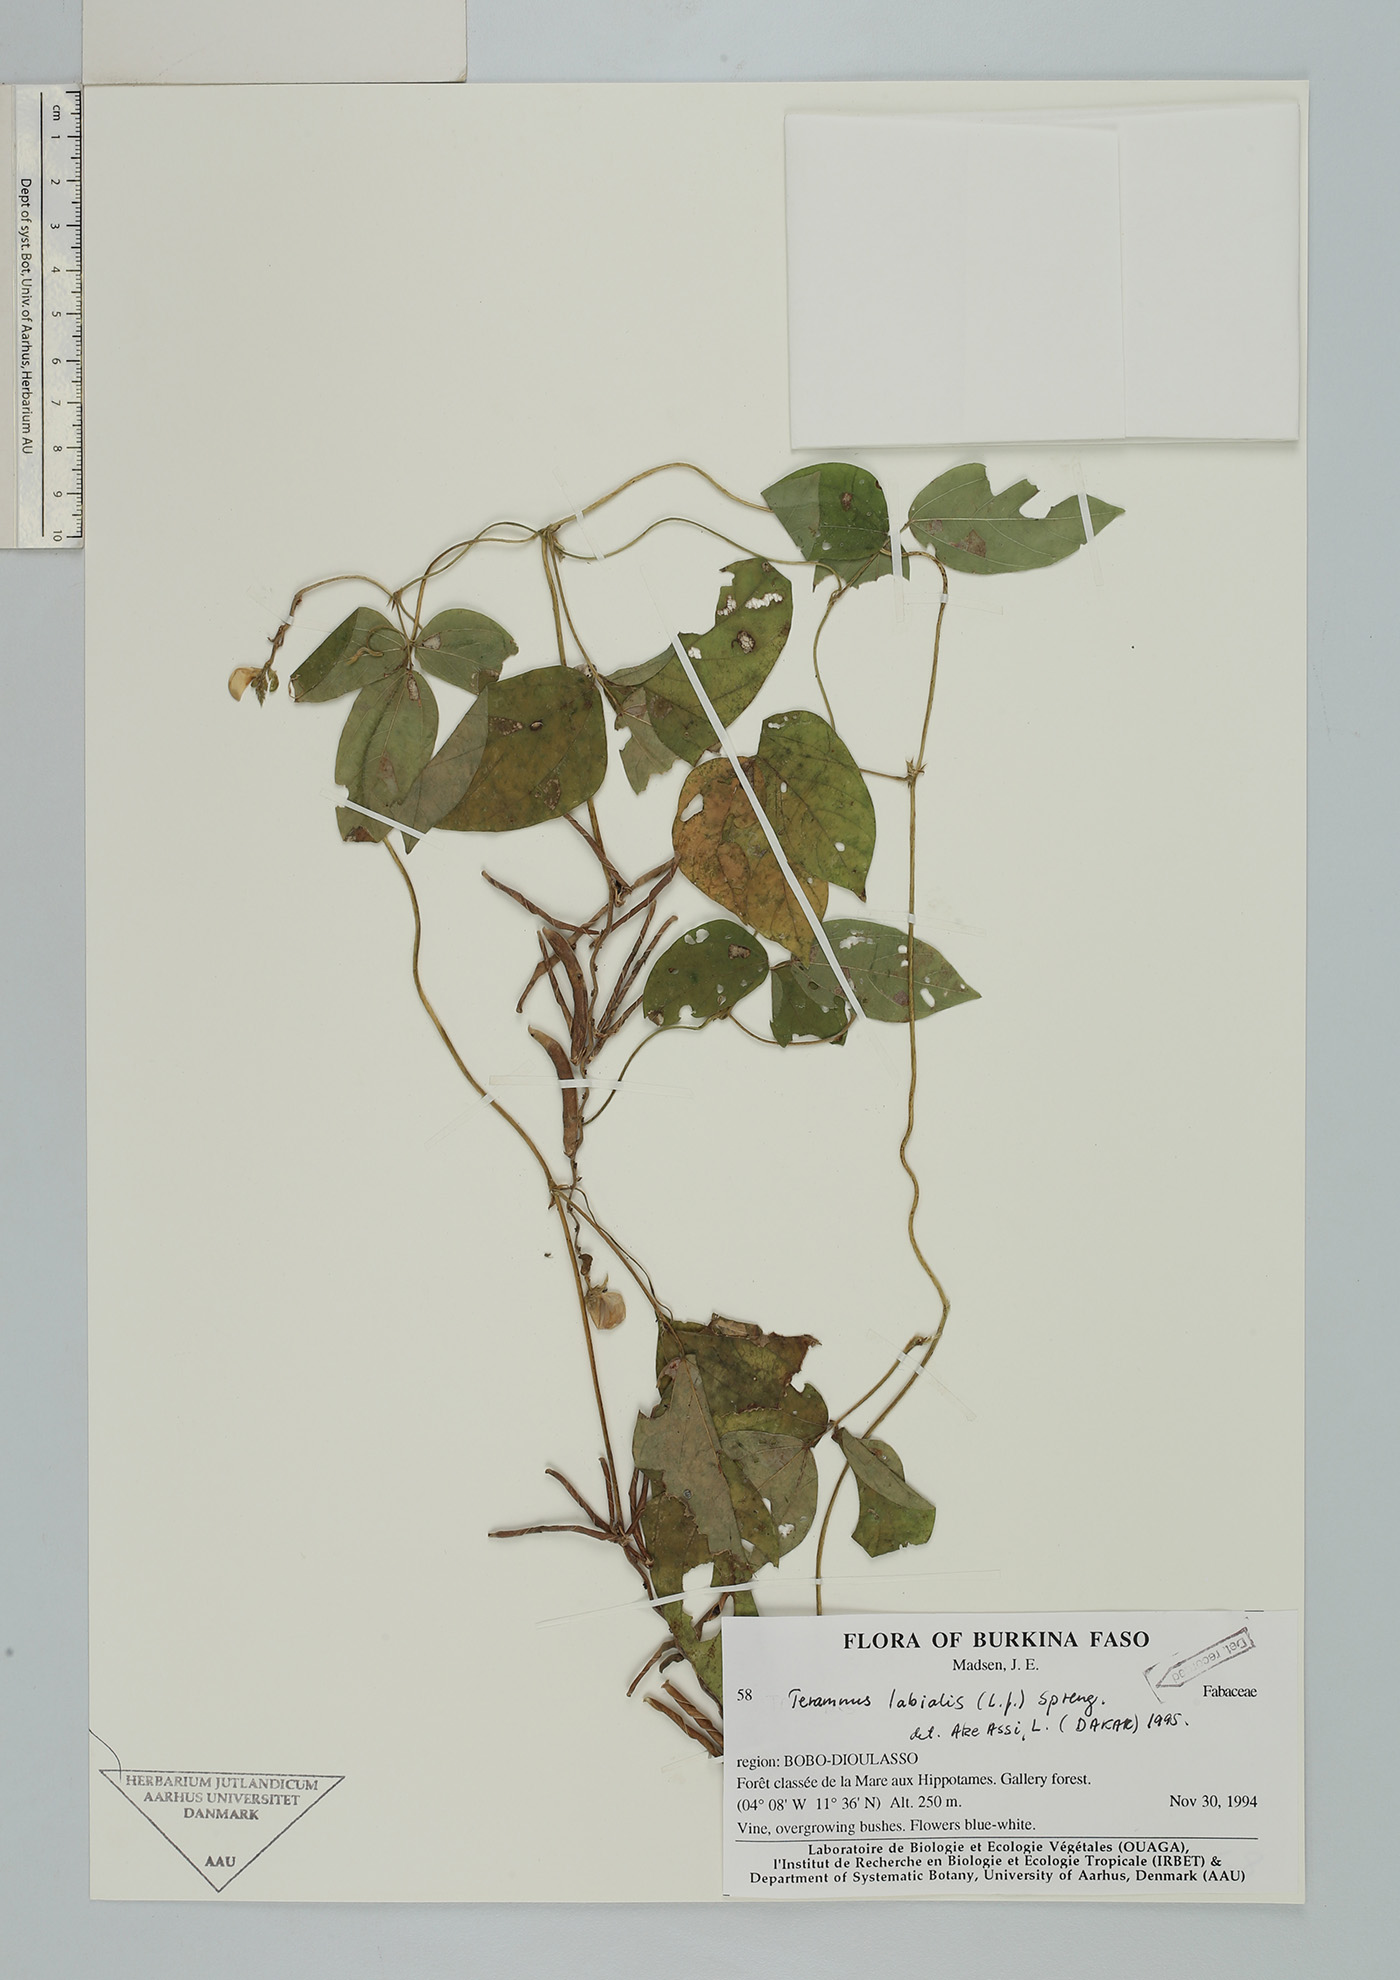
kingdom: Plantae
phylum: Tracheophyta
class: Magnoliopsida
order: Fabales
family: Fabaceae
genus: Teramnus
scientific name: Teramnus labialis
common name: Blue wiss
